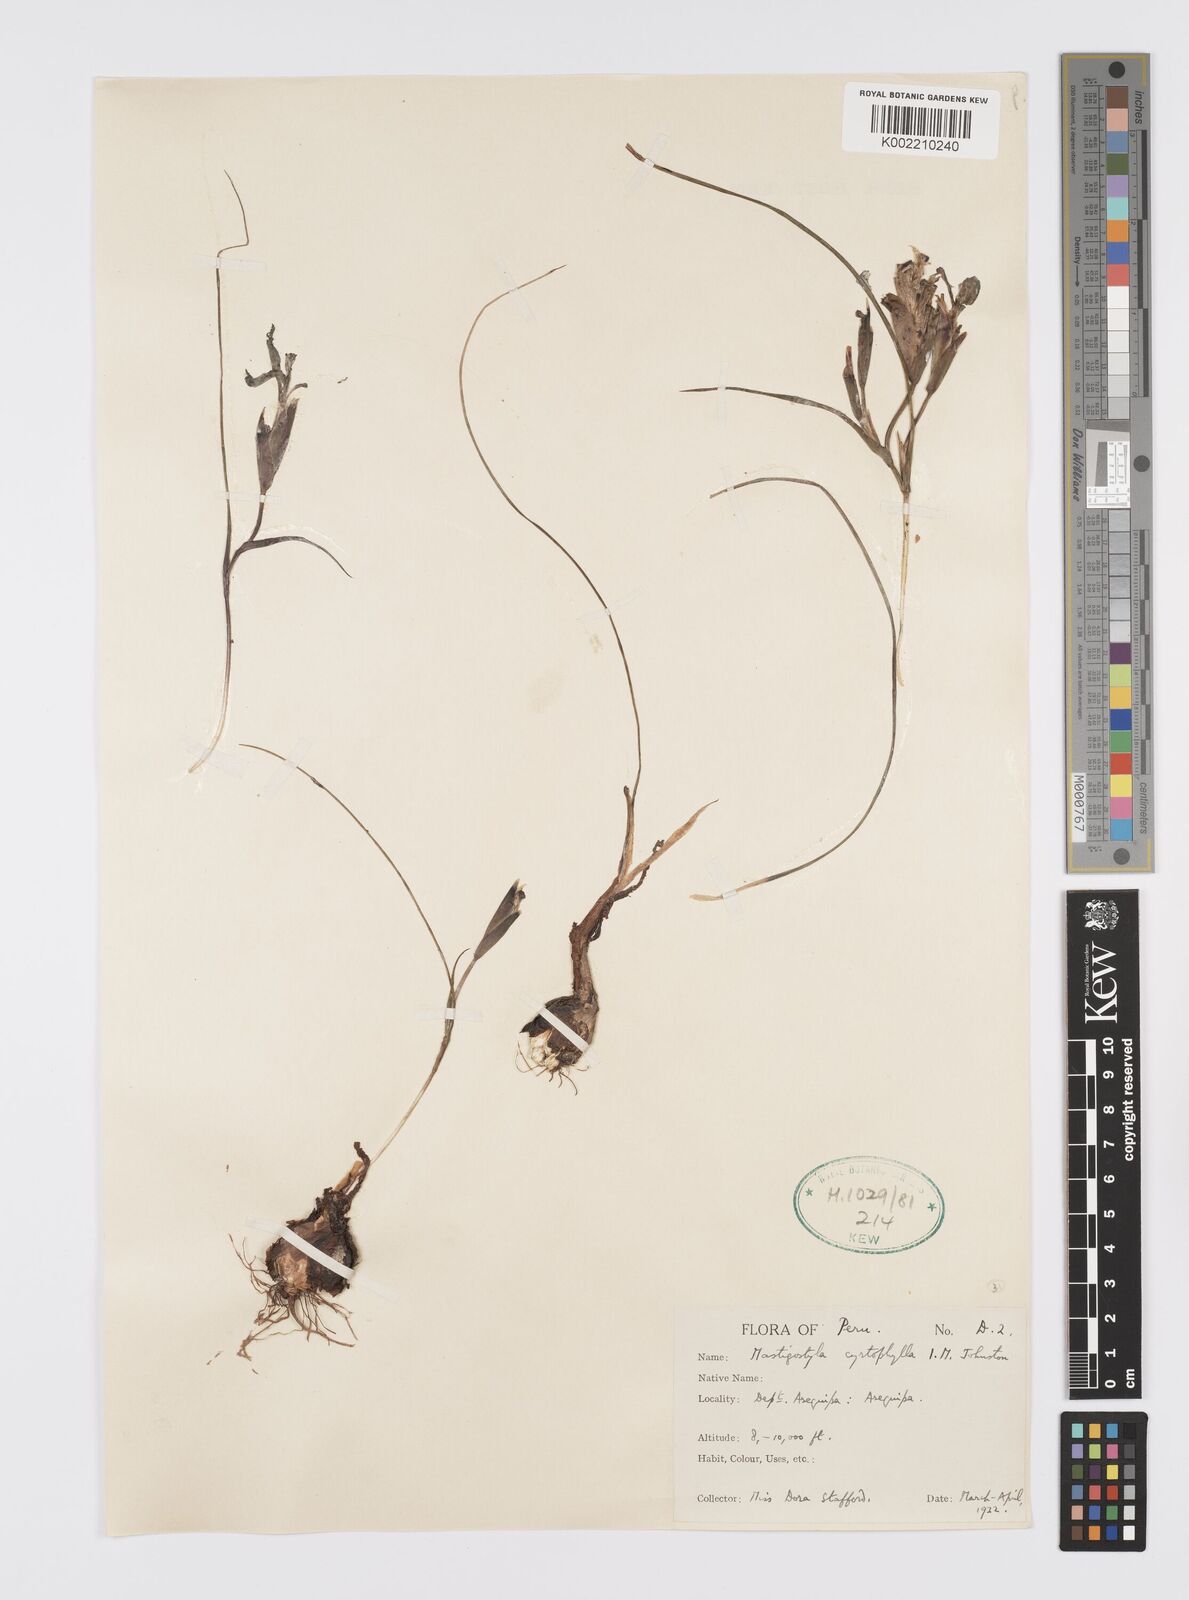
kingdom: Plantae
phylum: Tracheophyta
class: Liliopsida
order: Asparagales
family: Iridaceae
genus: Mastigostyla
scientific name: Mastigostyla cyrtophylla
